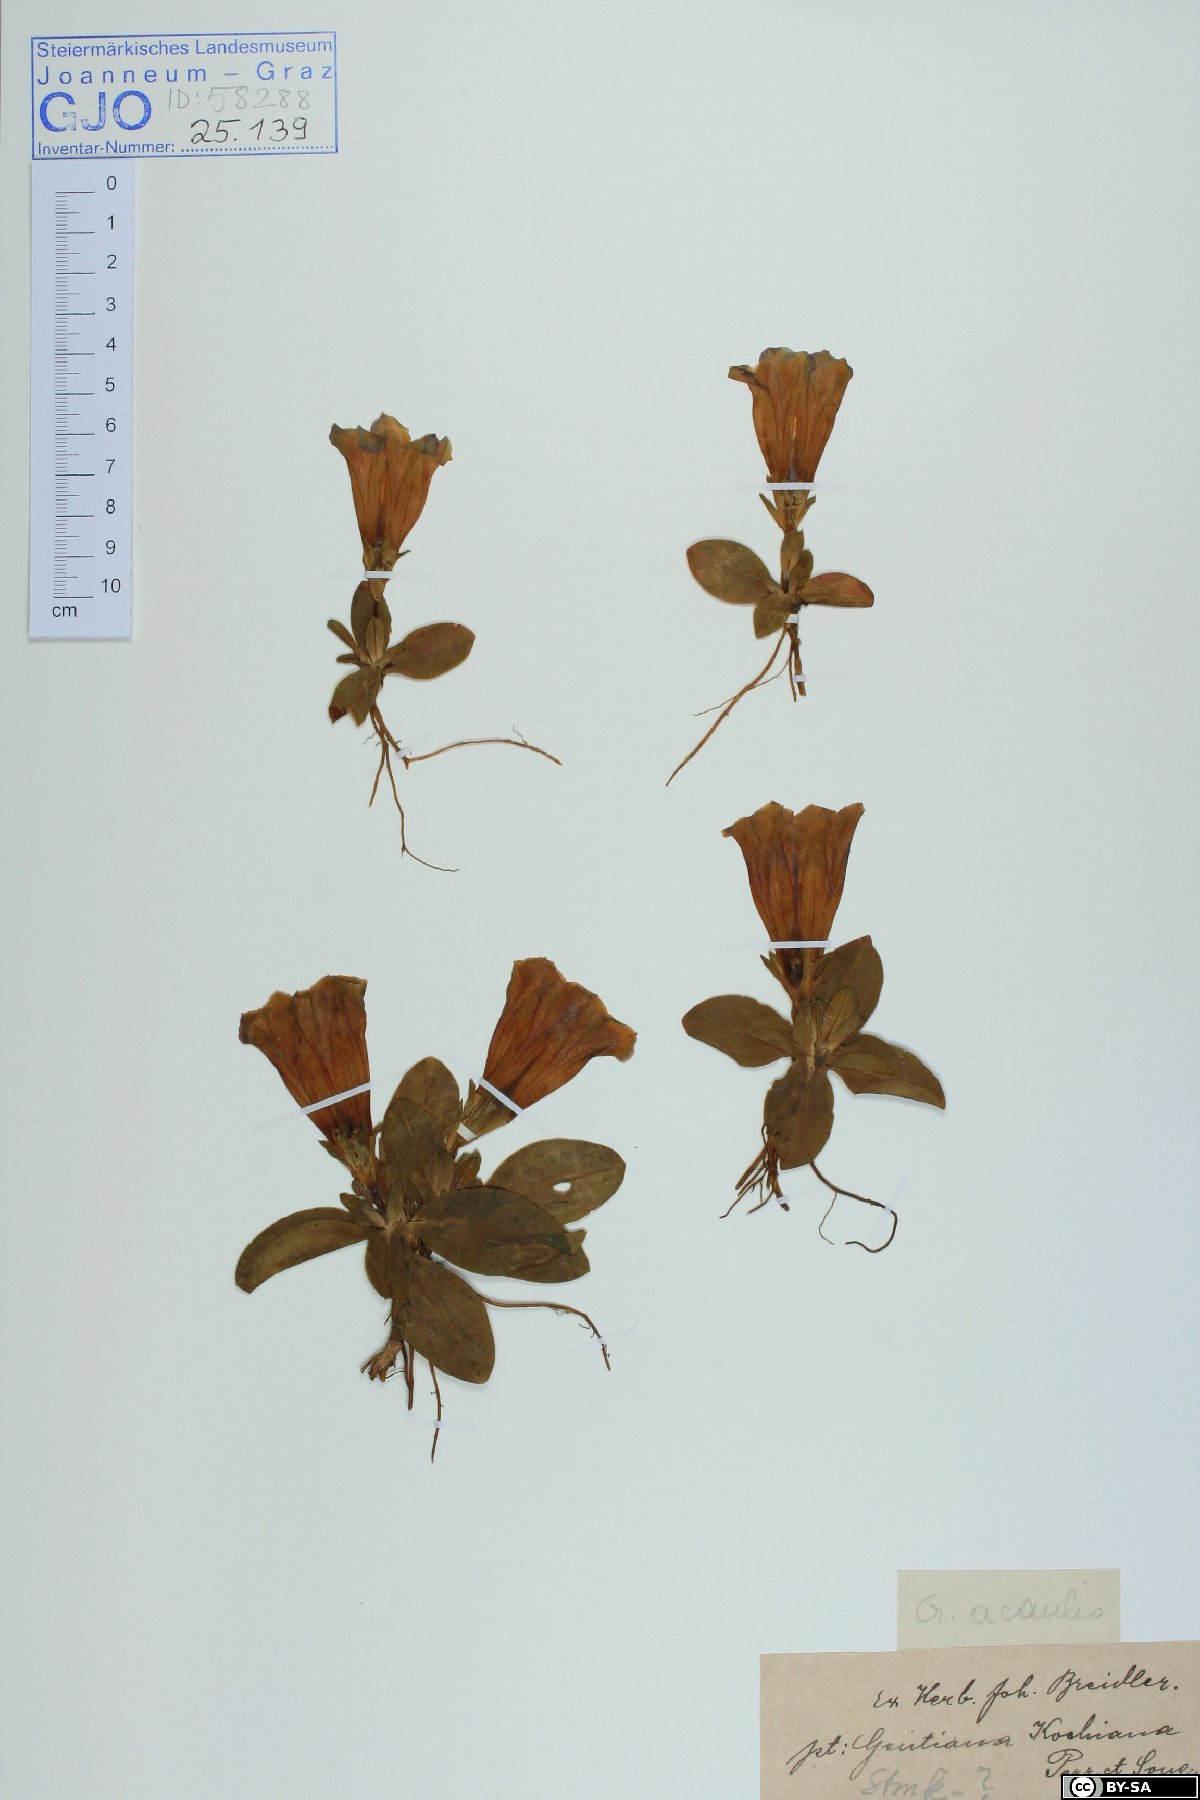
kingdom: Plantae
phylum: Tracheophyta
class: Magnoliopsida
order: Gentianales
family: Gentianaceae
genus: Gentiana
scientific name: Gentiana acaulis
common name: Trumpet gentian
